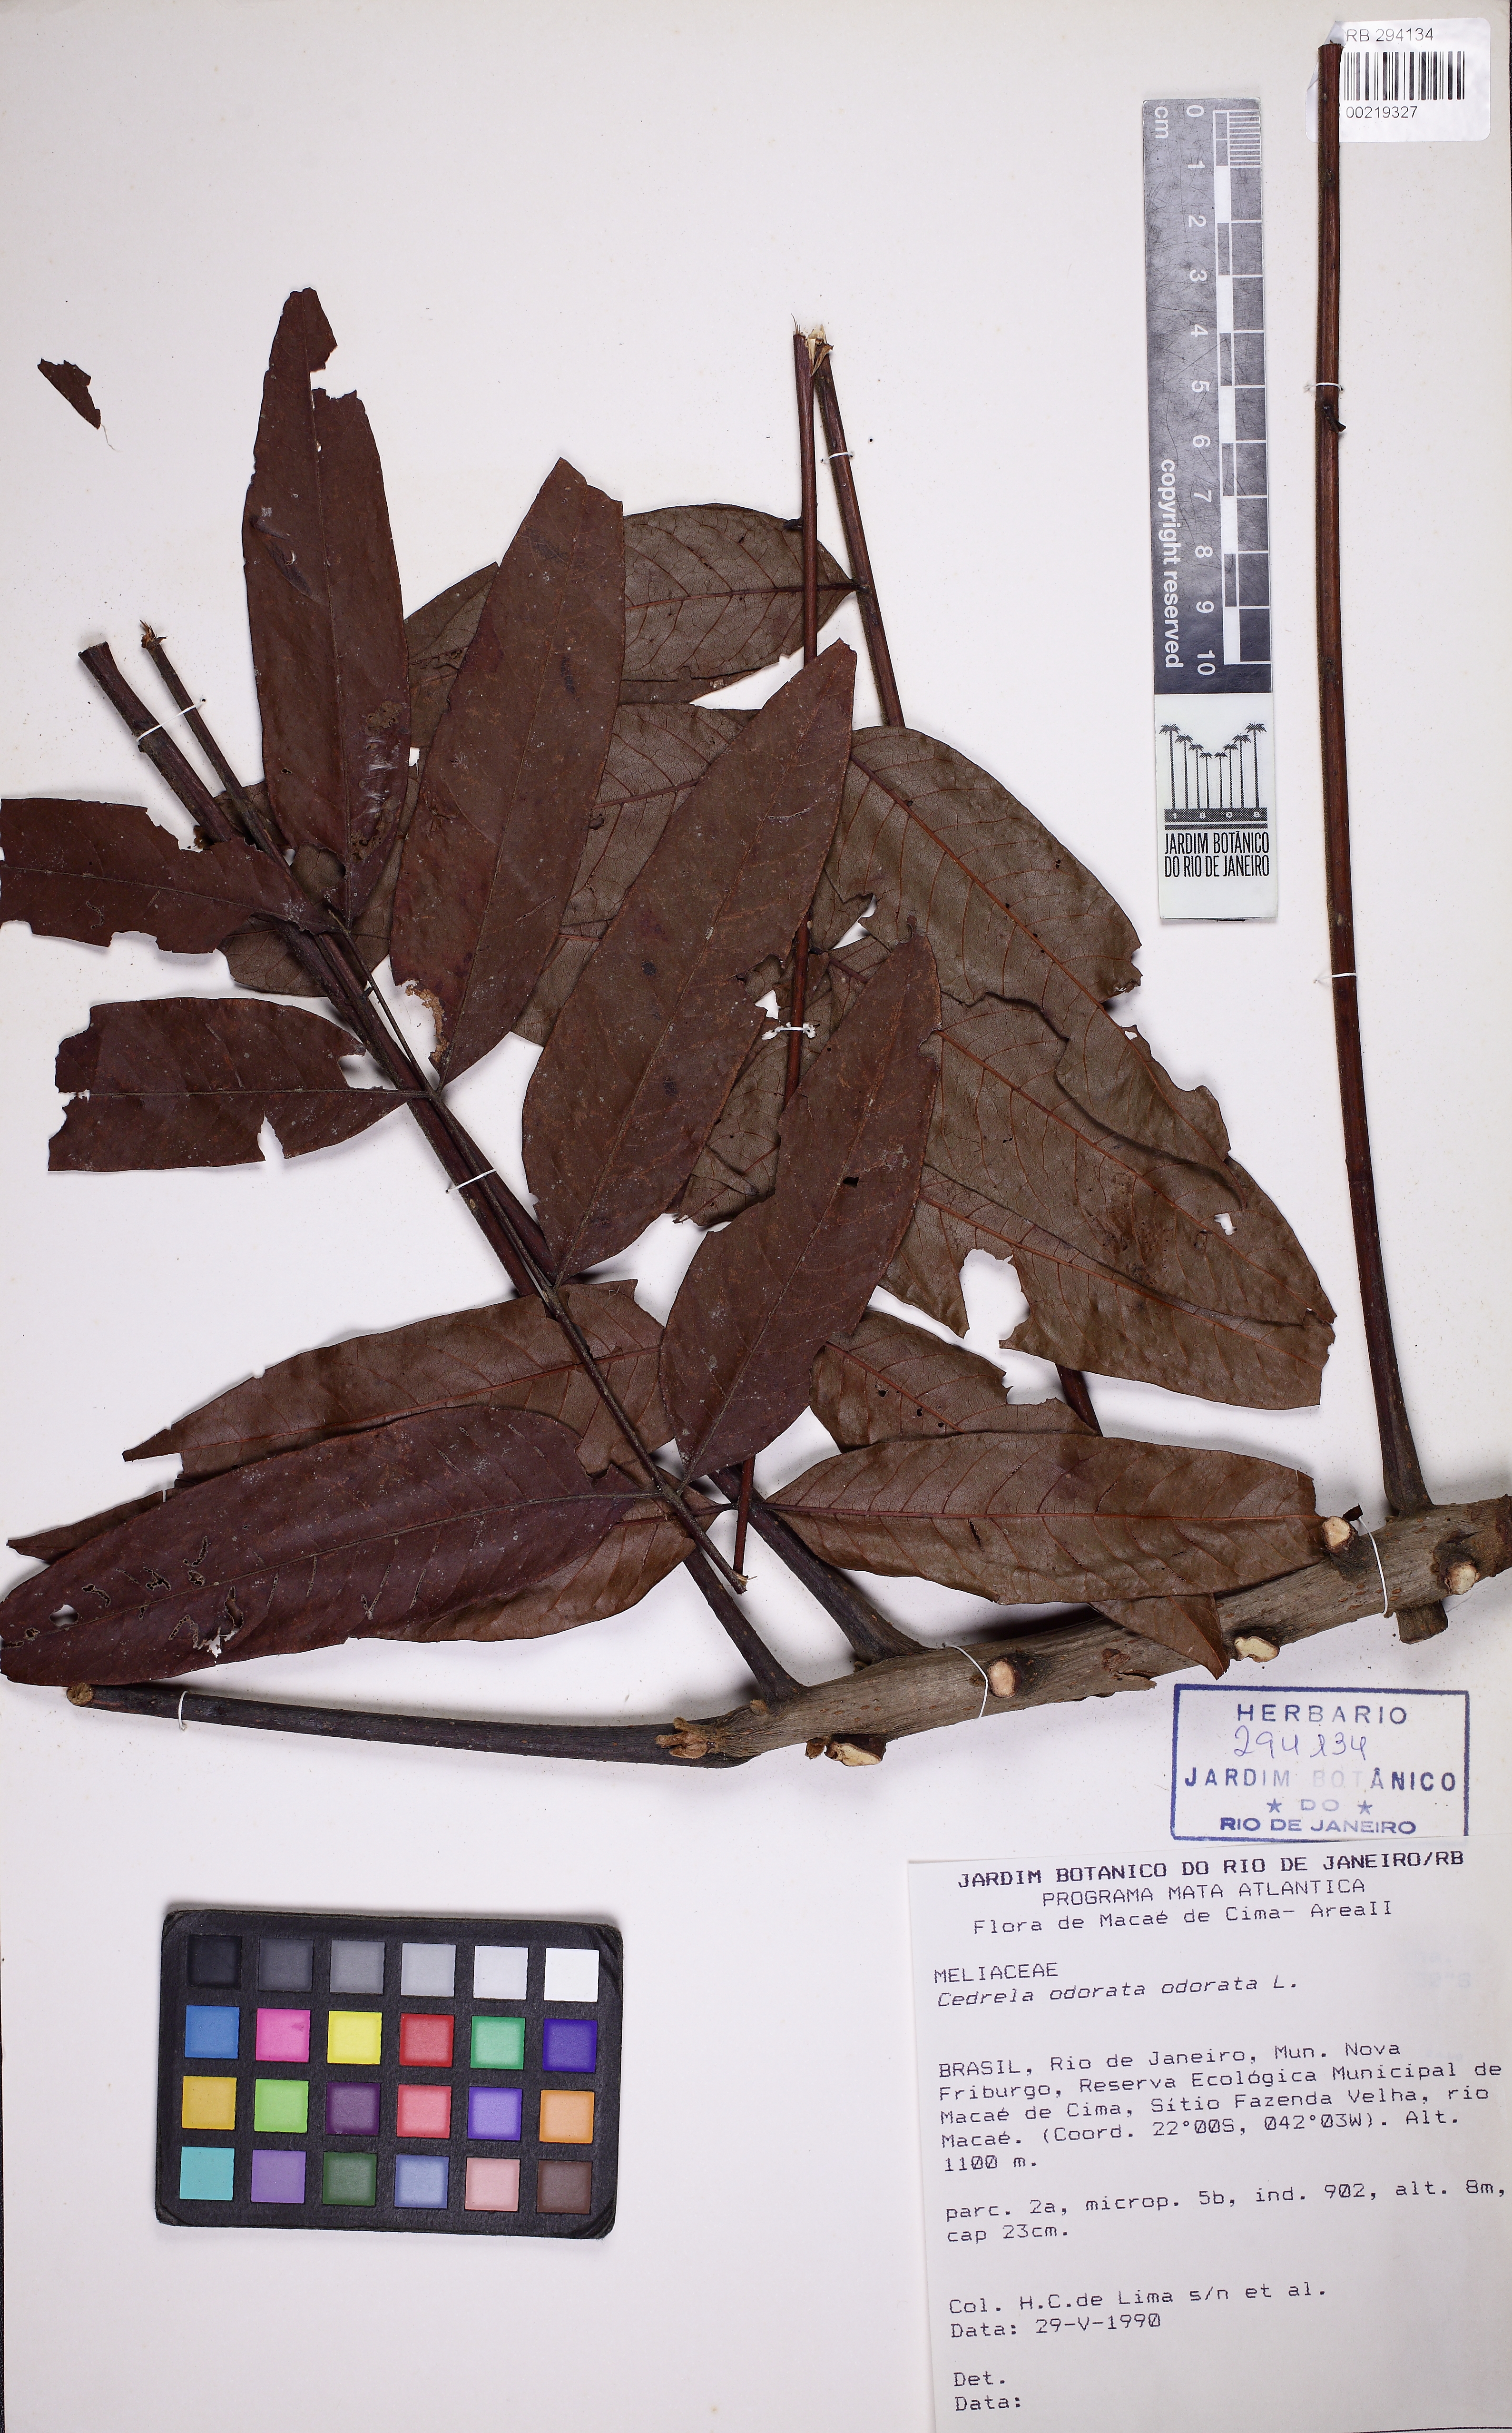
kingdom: Plantae
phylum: Tracheophyta
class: Magnoliopsida
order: Sapindales
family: Meliaceae
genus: Cedrela
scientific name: Cedrela odorata
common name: Red cedar
